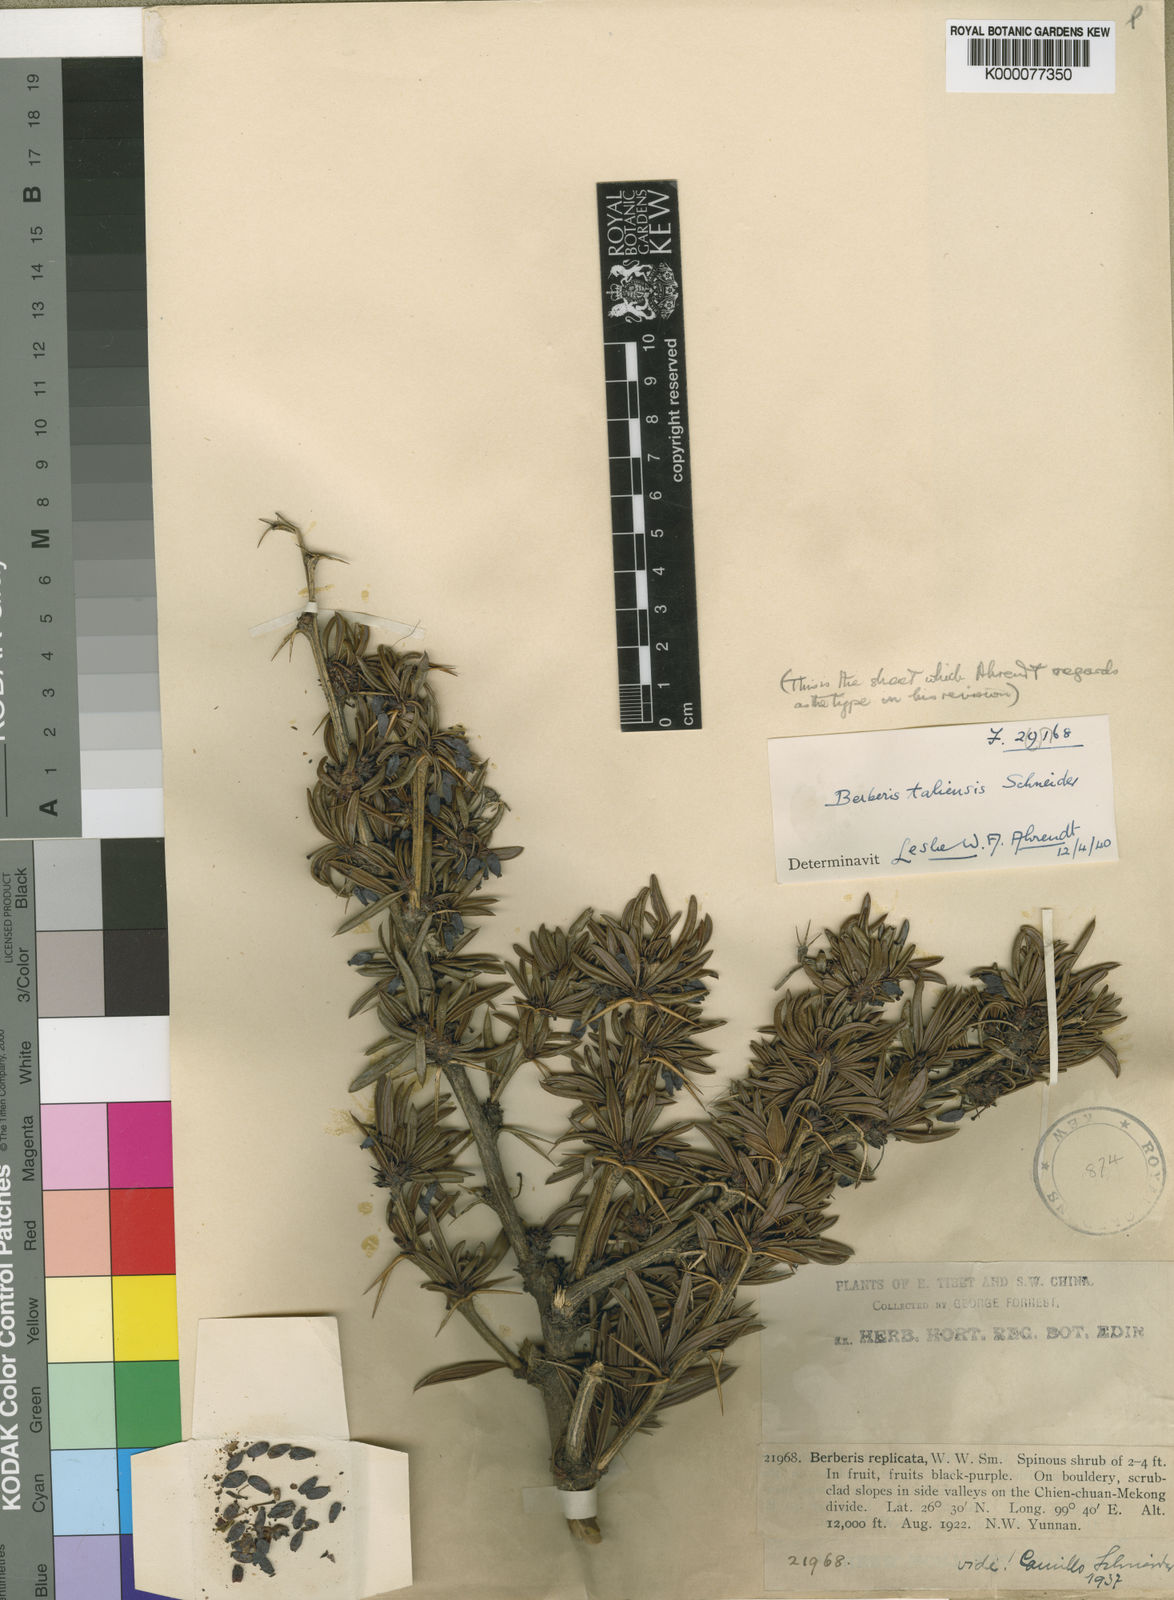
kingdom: Plantae
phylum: Tracheophyta
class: Magnoliopsida
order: Ranunculales
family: Berberidaceae
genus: Berberis
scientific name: Berberis taliensis
